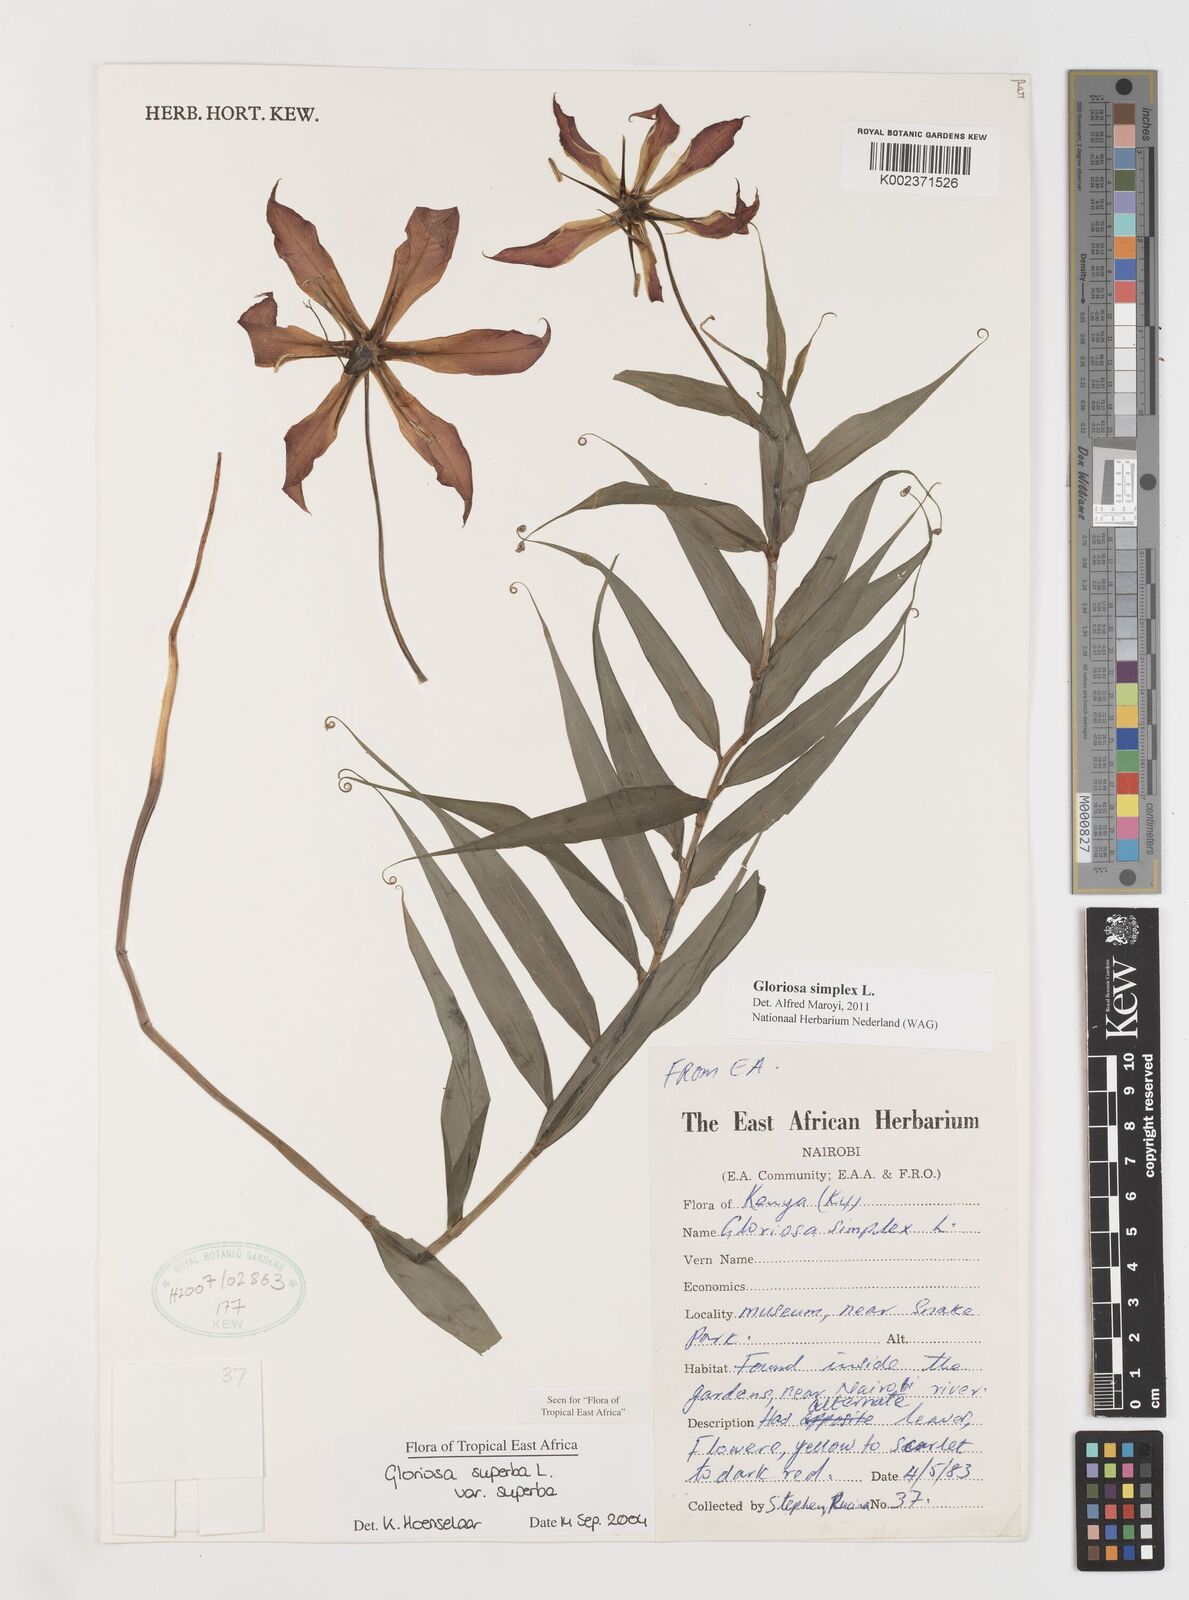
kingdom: Plantae
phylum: Tracheophyta
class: Liliopsida
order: Liliales
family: Colchicaceae
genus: Gloriosa
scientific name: Gloriosa simplex
